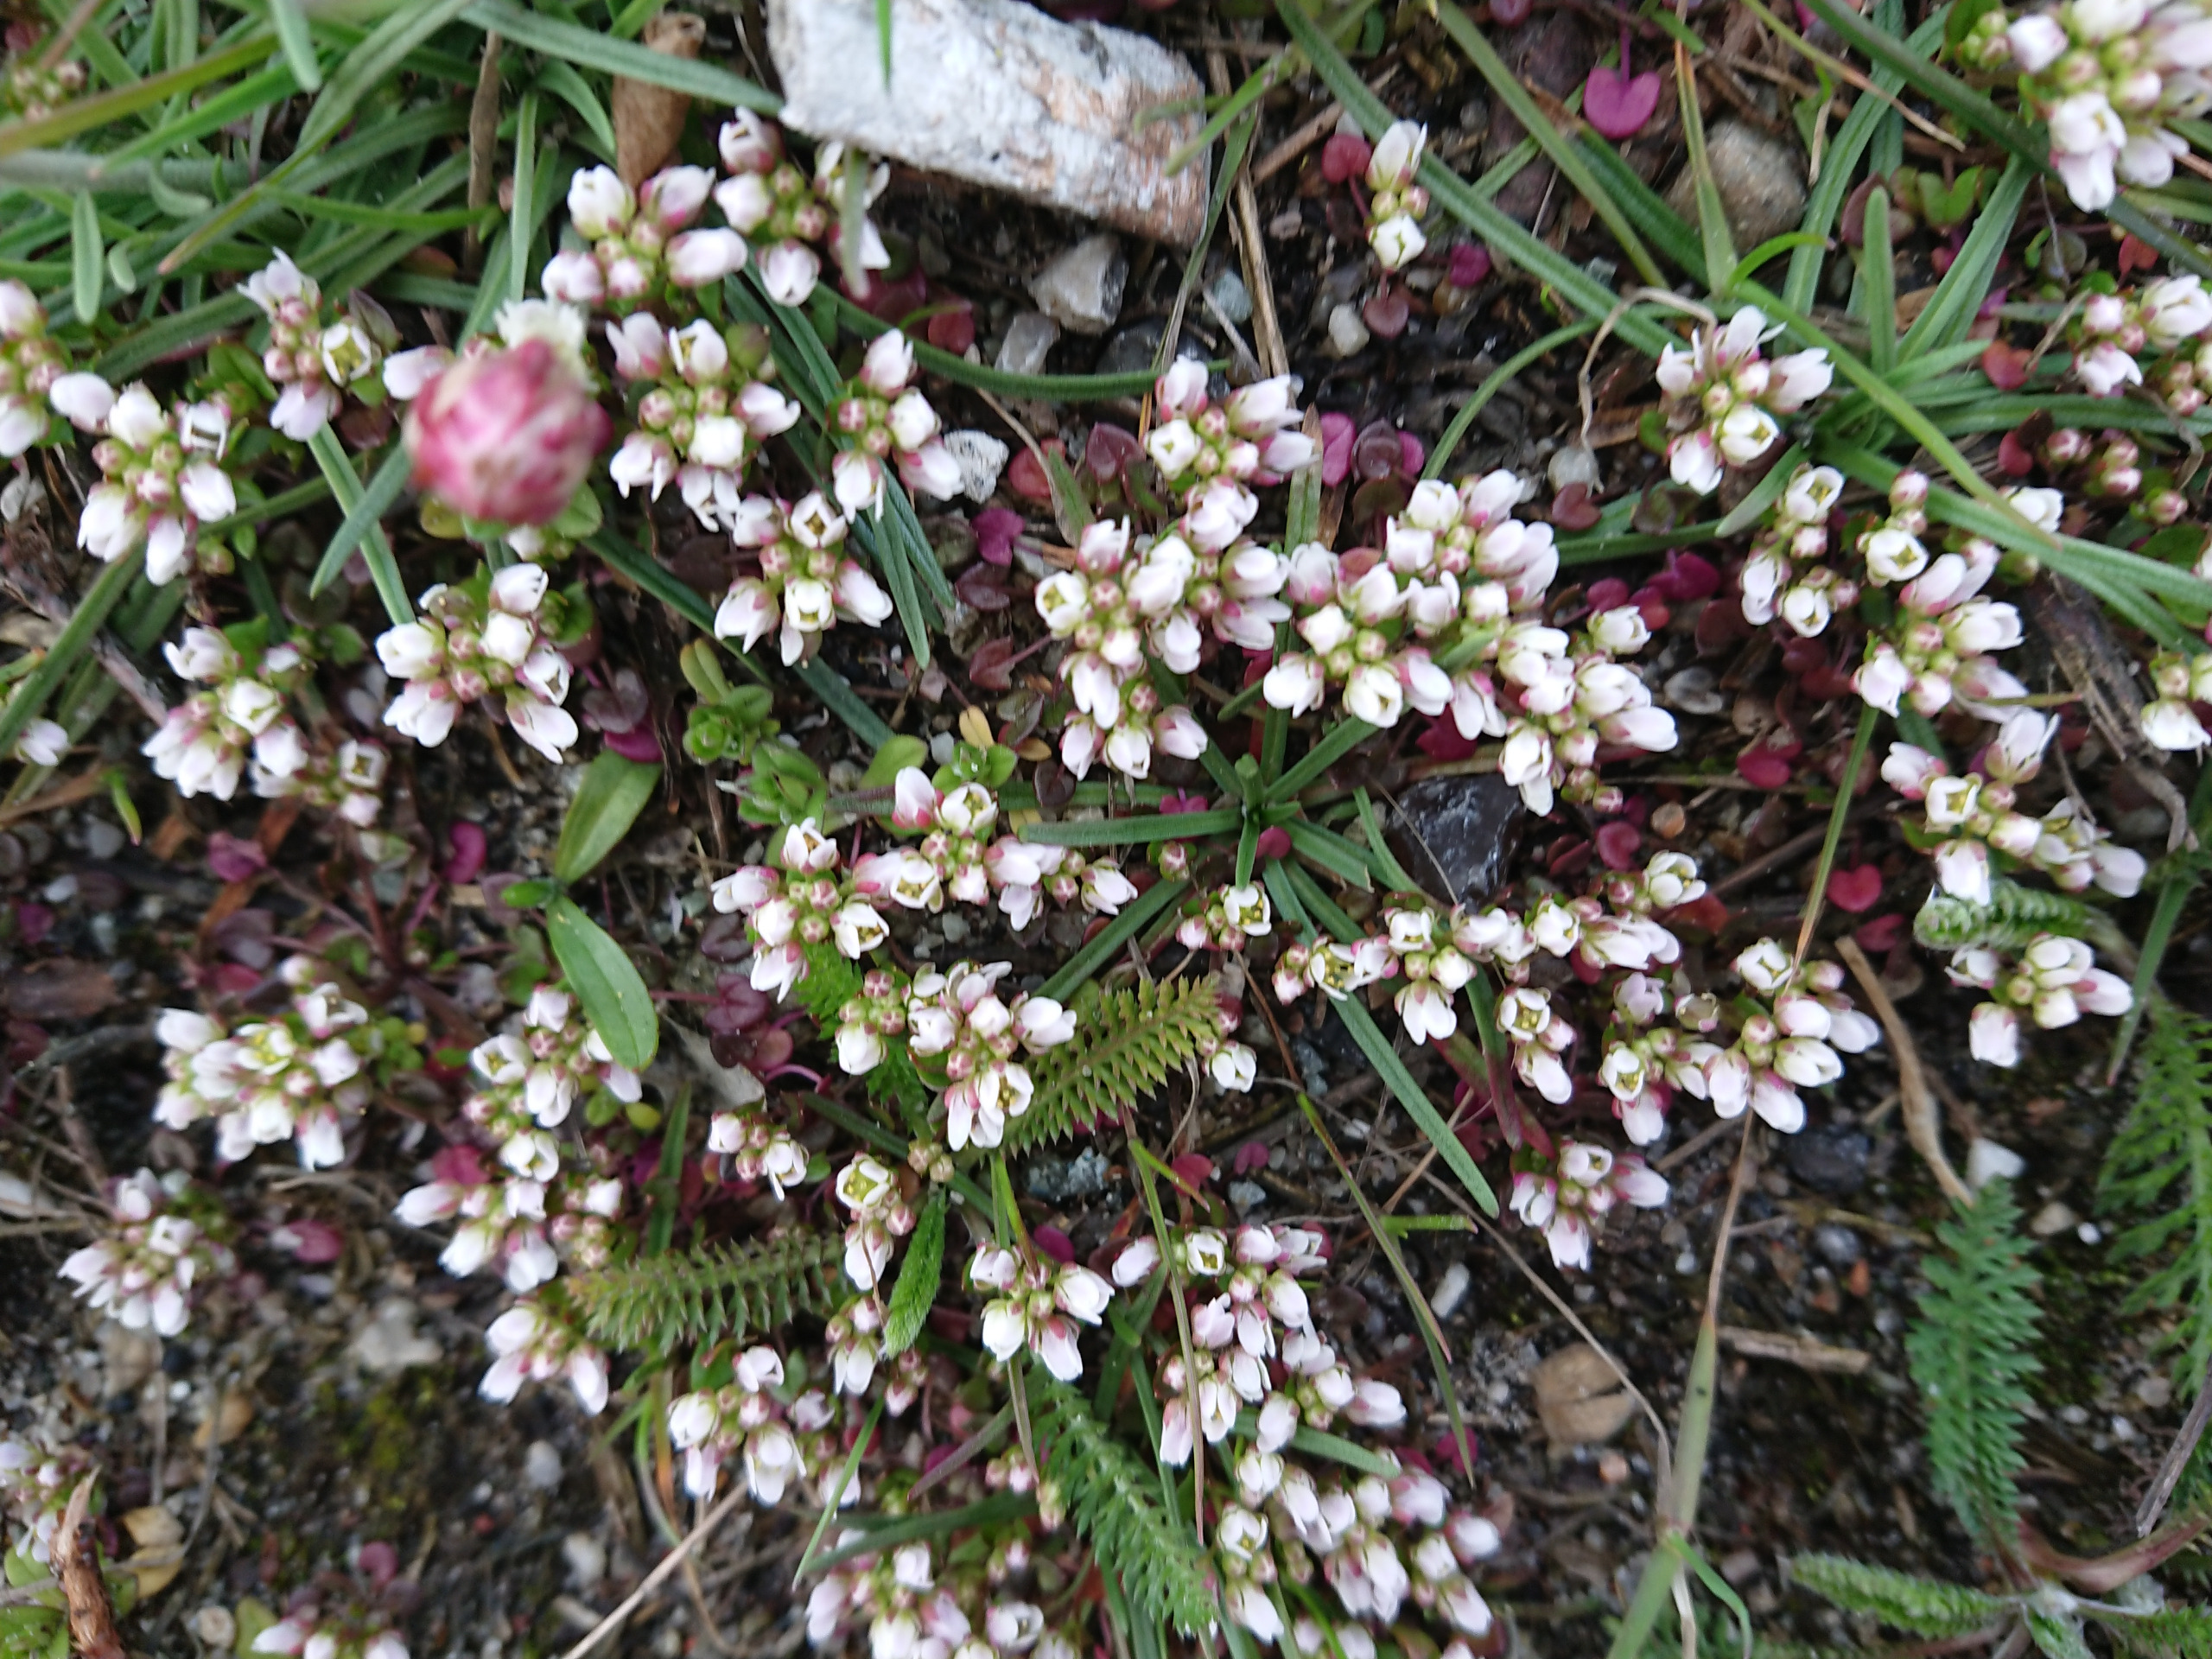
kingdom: Plantae
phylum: Tracheophyta
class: Magnoliopsida
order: Brassicales
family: Brassicaceae
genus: Cochlearia
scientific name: Cochlearia danica
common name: Dansk kokleare
